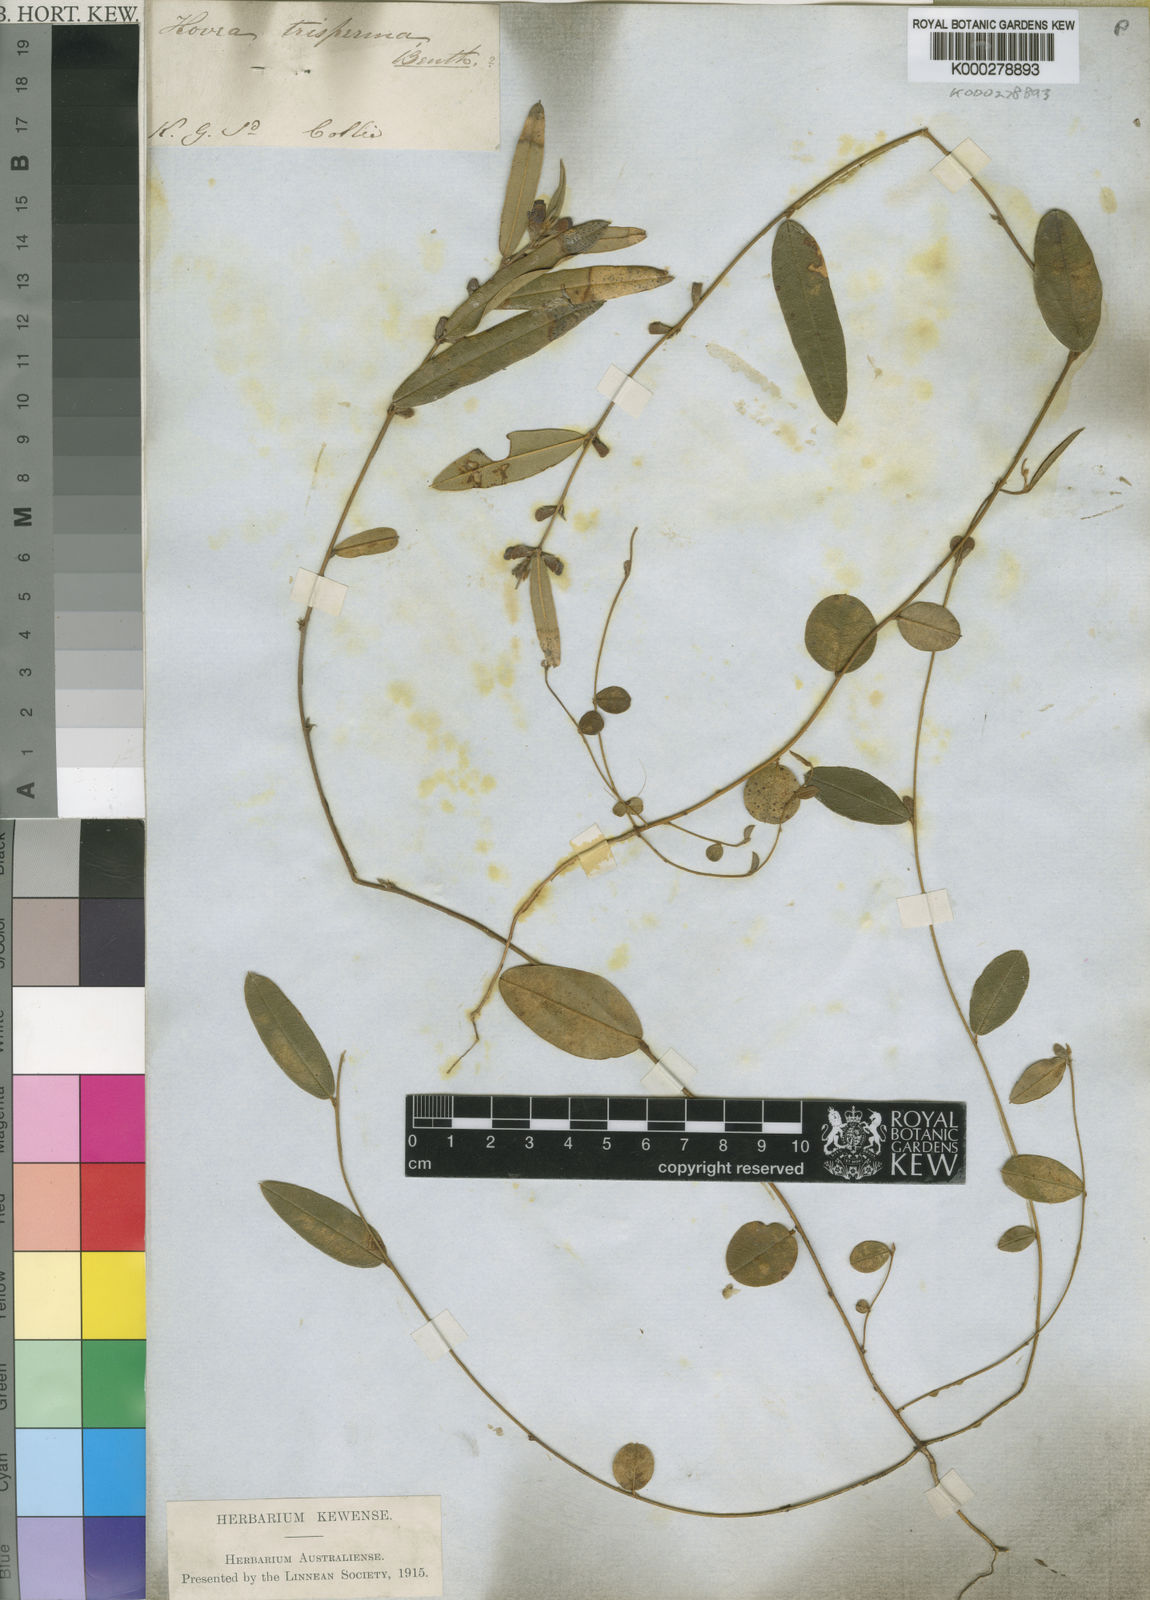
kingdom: Plantae
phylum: Tracheophyta
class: Magnoliopsida
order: Fabales
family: Fabaceae
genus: Hovea
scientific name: Hovea trisperma
